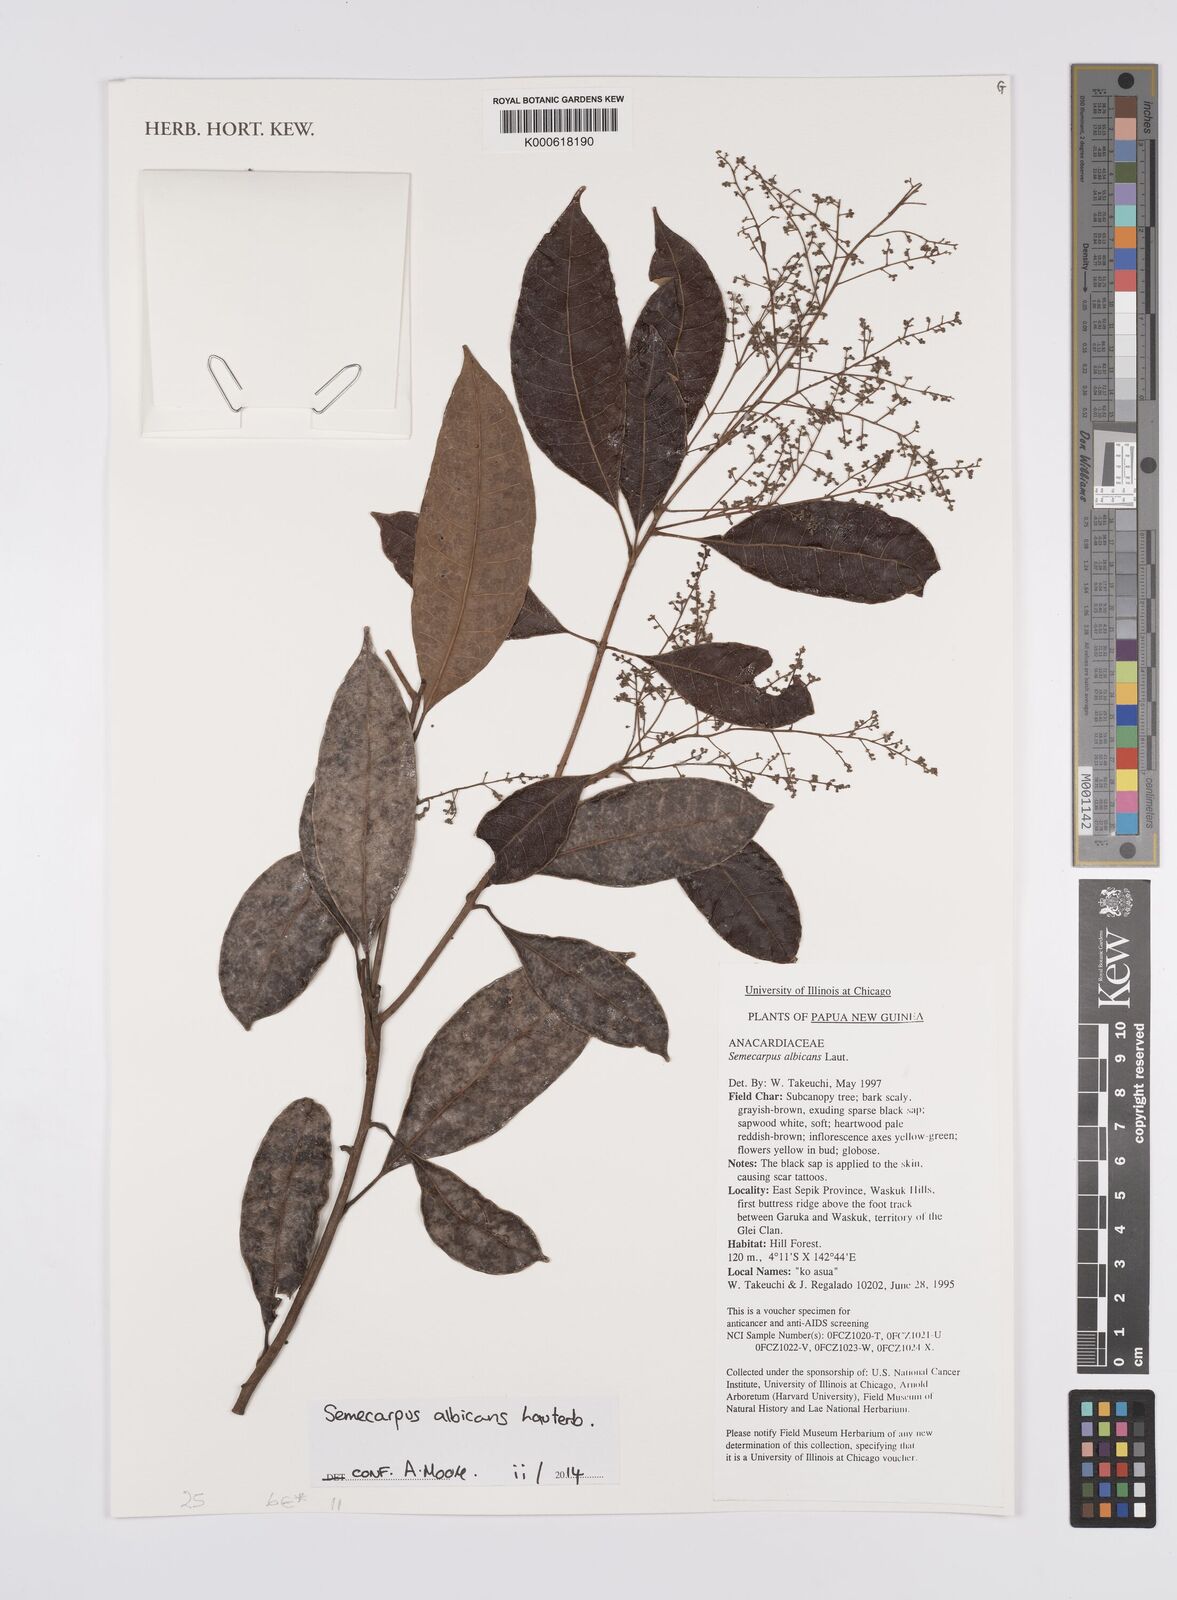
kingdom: Plantae
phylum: Tracheophyta
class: Magnoliopsida
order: Sapindales
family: Anacardiaceae
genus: Semecarpus
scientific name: Semecarpus albicans
